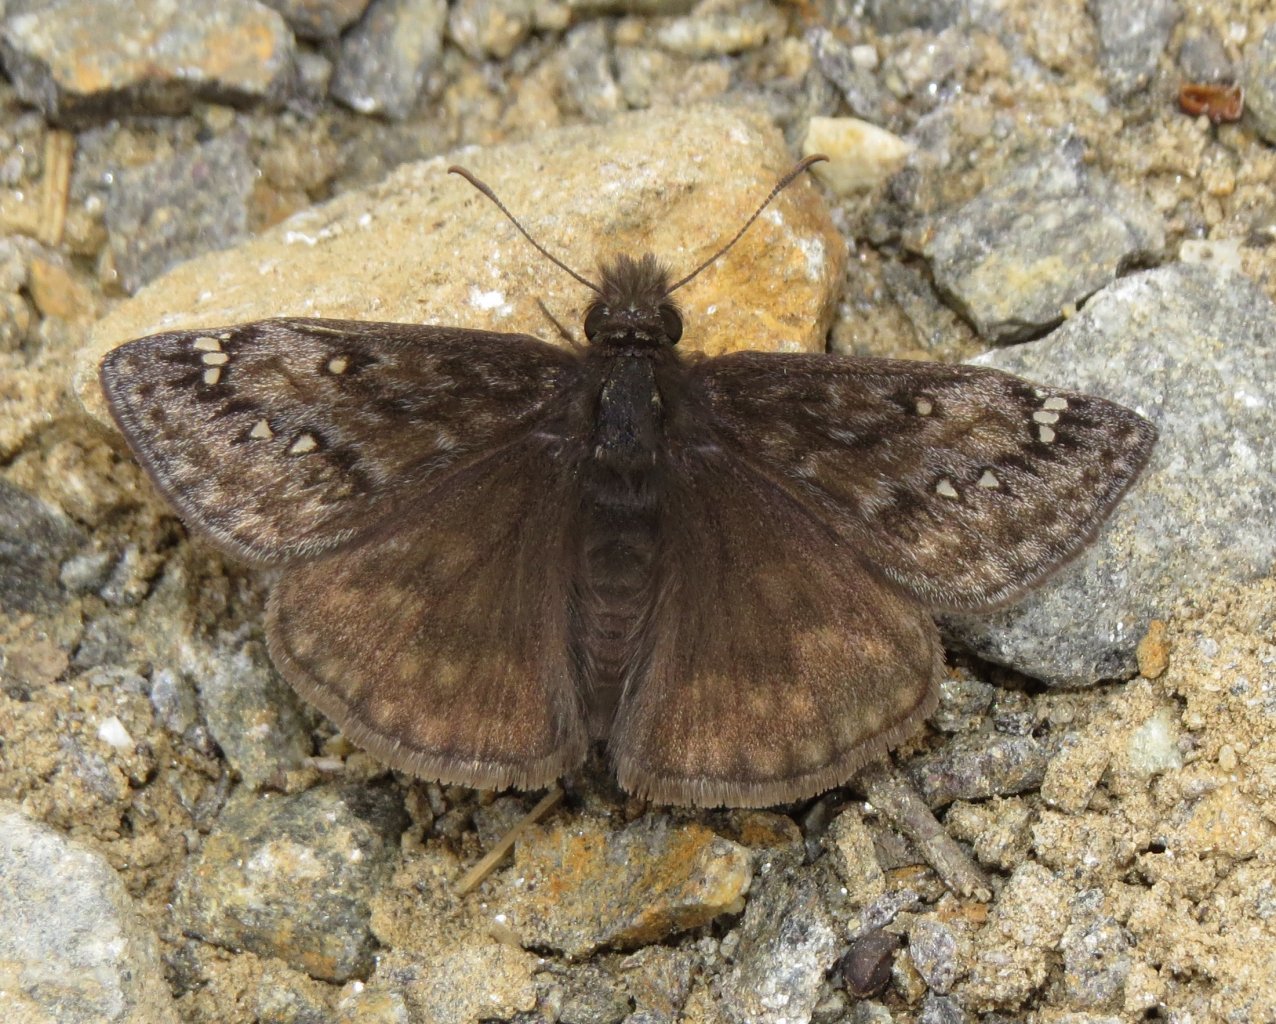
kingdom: Animalia
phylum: Arthropoda
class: Insecta
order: Lepidoptera
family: Hesperiidae
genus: Gesta
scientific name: Gesta
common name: Juvenal's Duskywing
